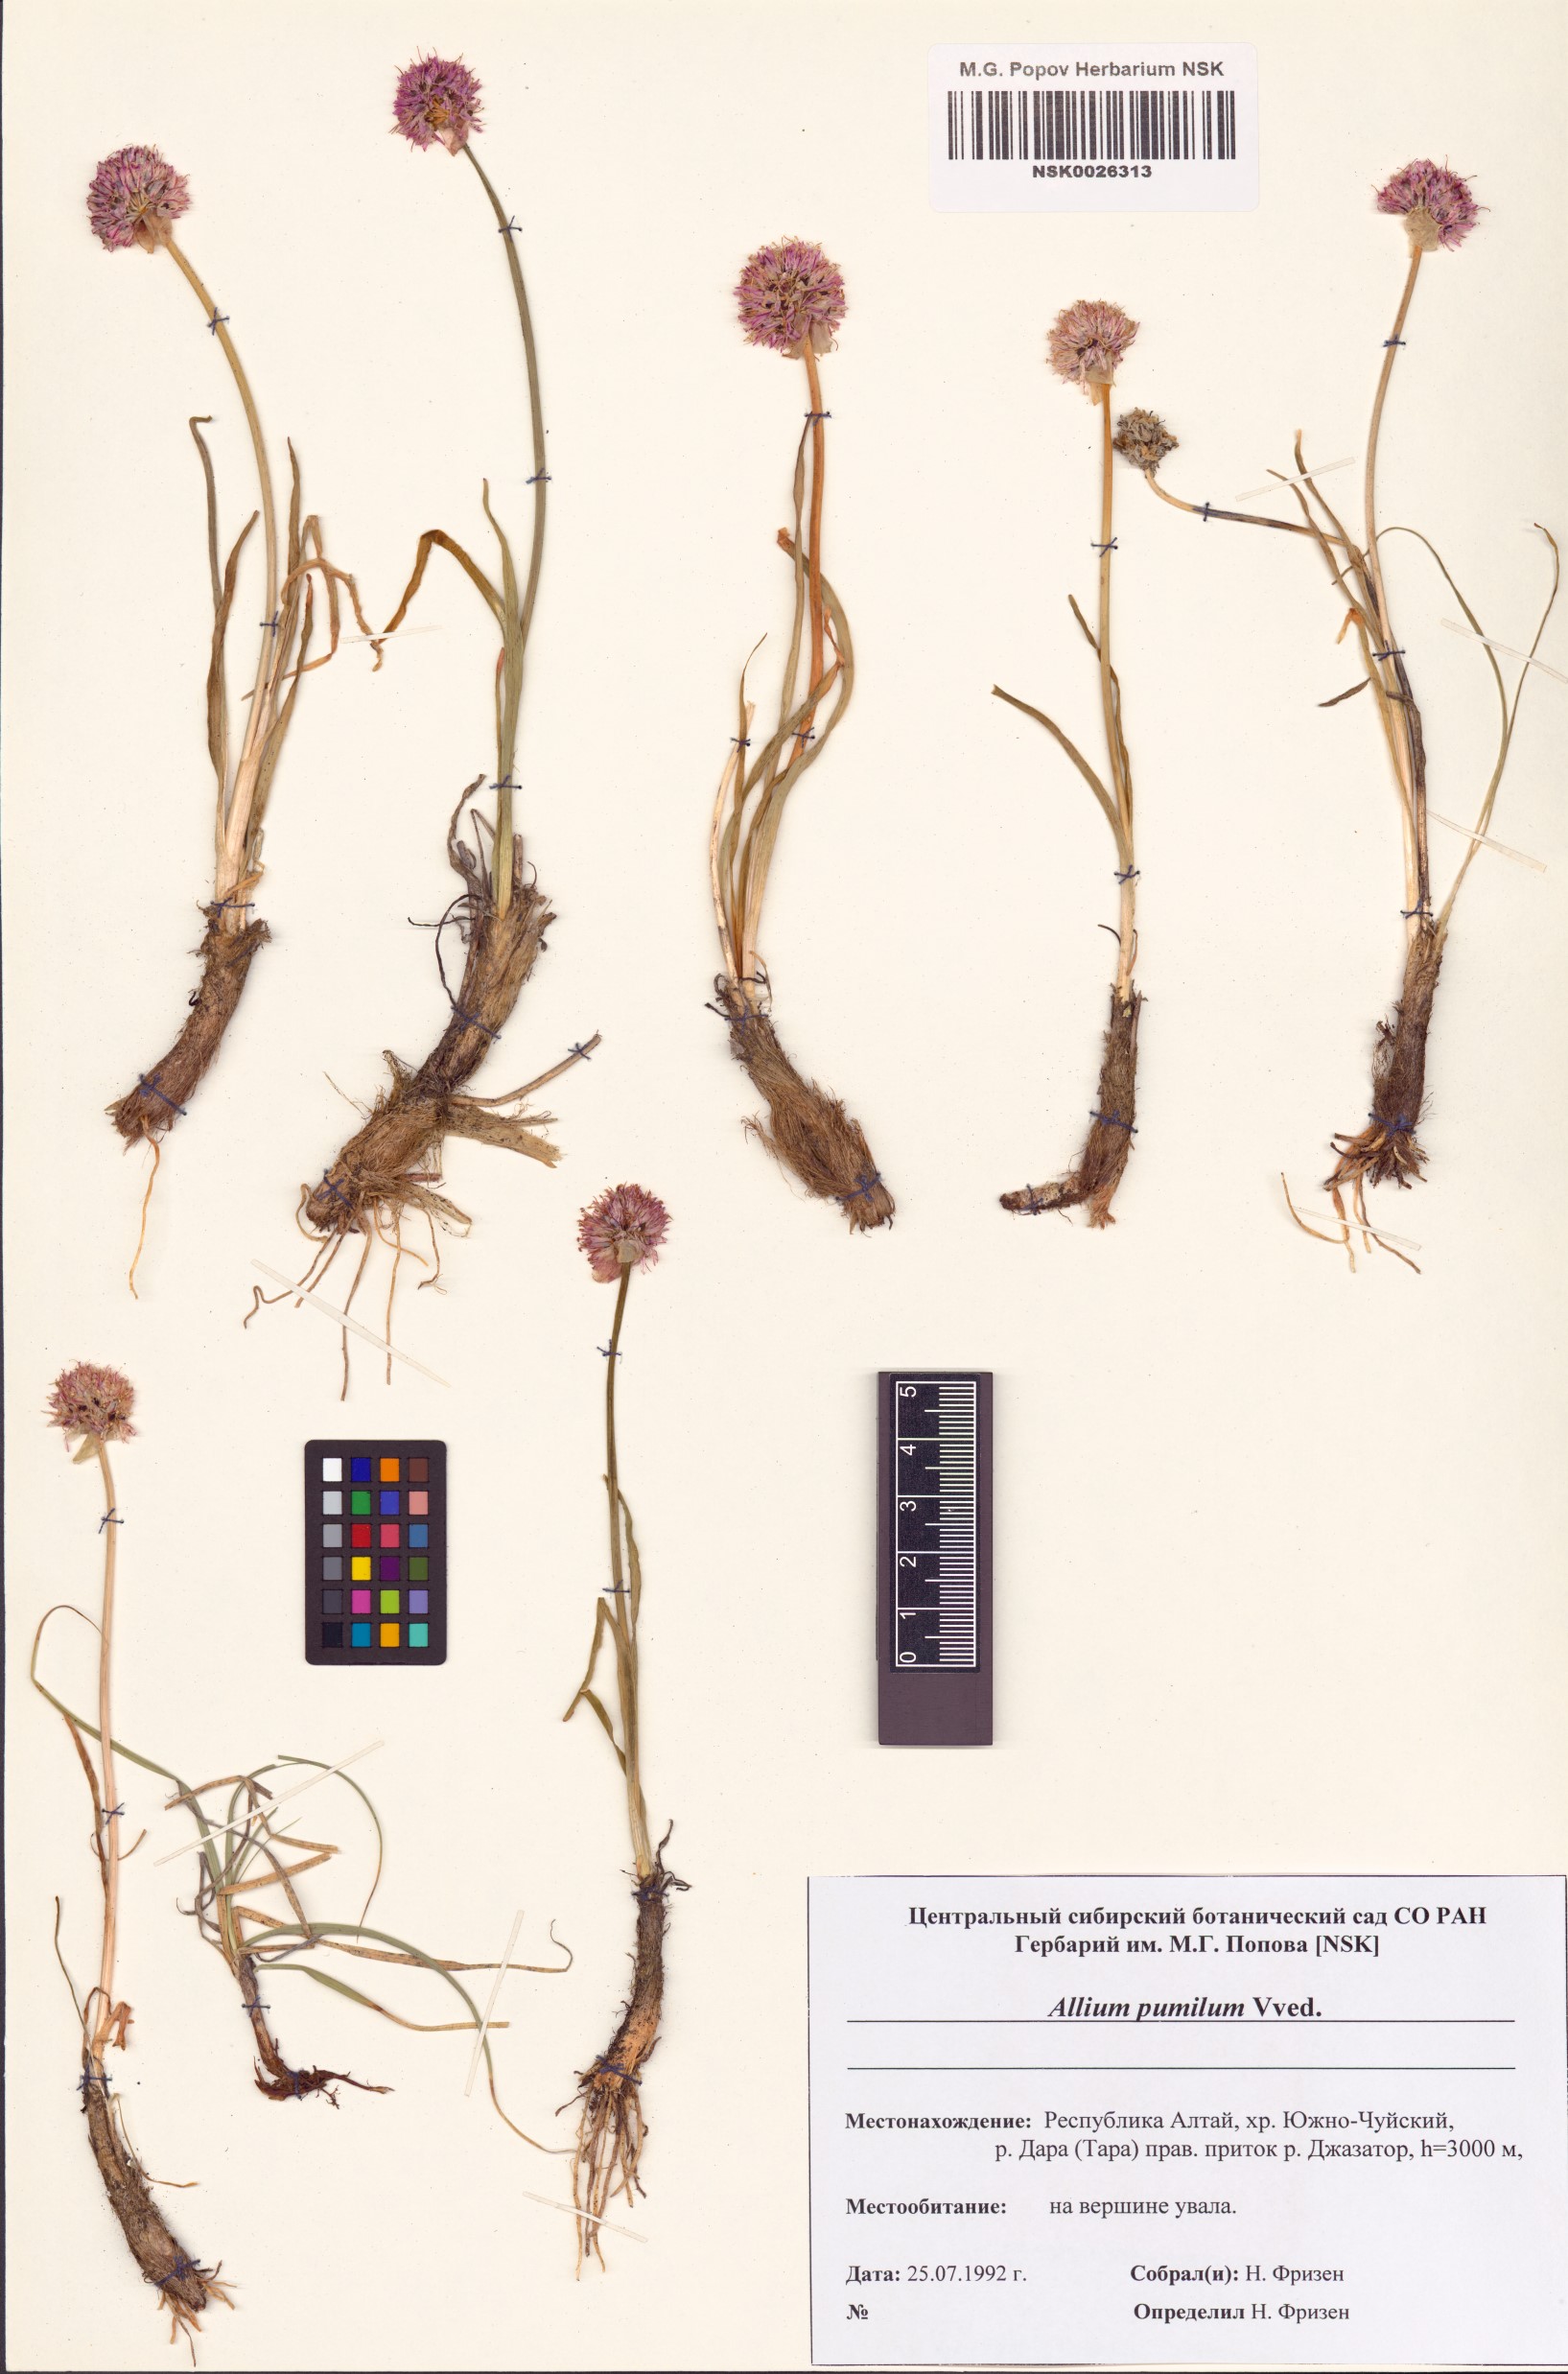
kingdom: Plantae
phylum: Tracheophyta
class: Liliopsida
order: Asparagales
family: Amaryllidaceae
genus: Allium
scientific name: Allium pumilum
